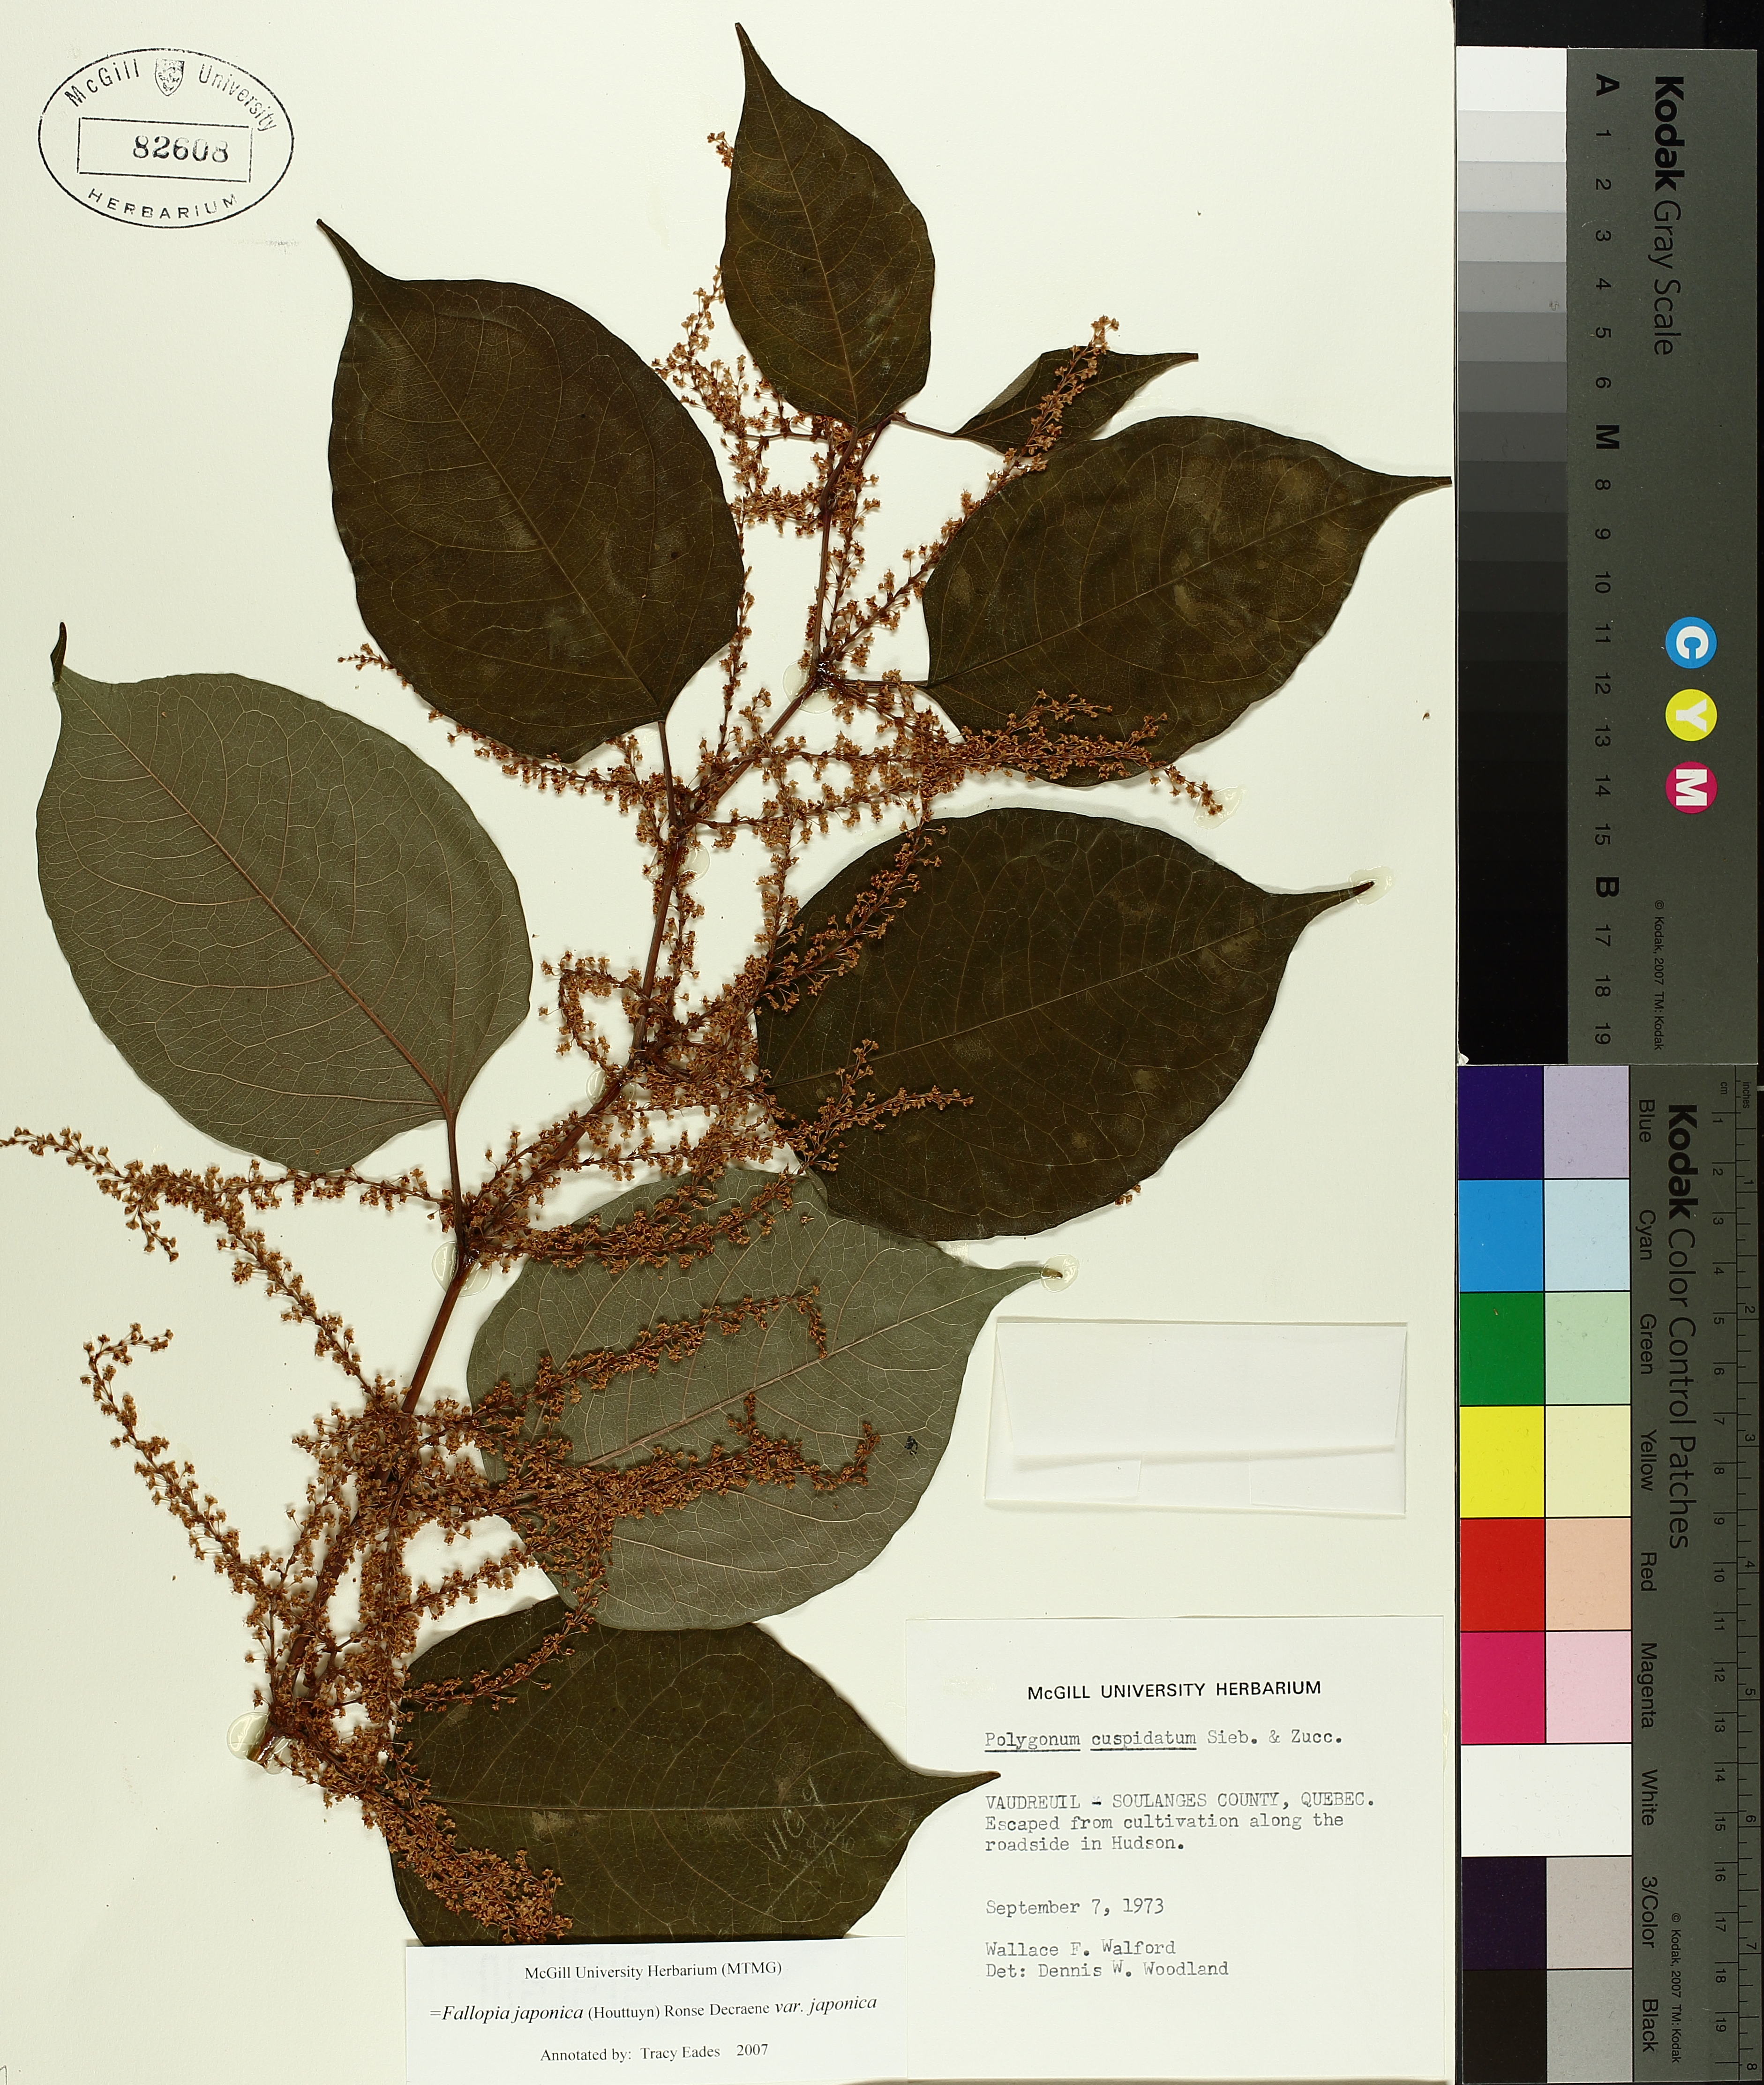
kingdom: Plantae
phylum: Tracheophyta
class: Magnoliopsida
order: Caryophyllales
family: Polygonaceae
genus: Reynoutria
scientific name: Reynoutria japonica
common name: Japanese knotweed
